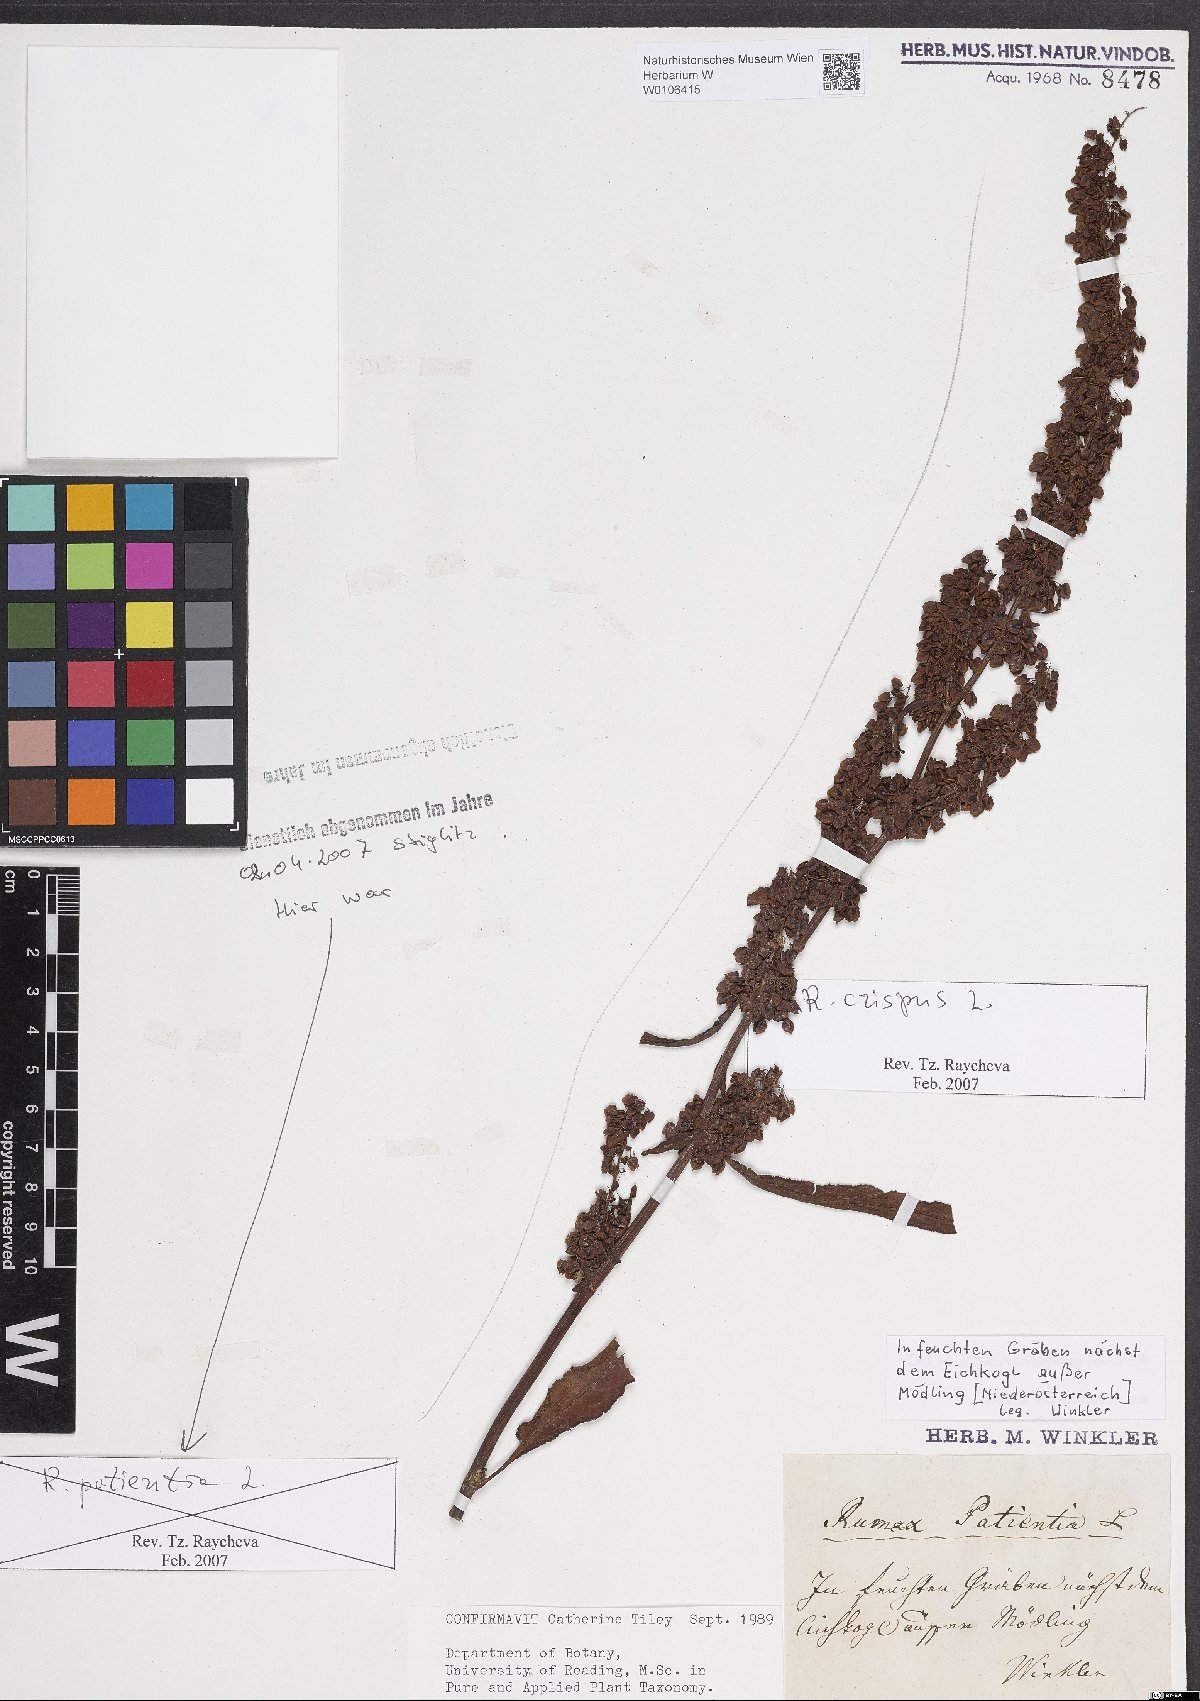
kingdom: Plantae
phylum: Tracheophyta
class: Magnoliopsida
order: Caryophyllales
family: Polygonaceae
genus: Rumex
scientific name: Rumex crispus
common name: Curled dock
